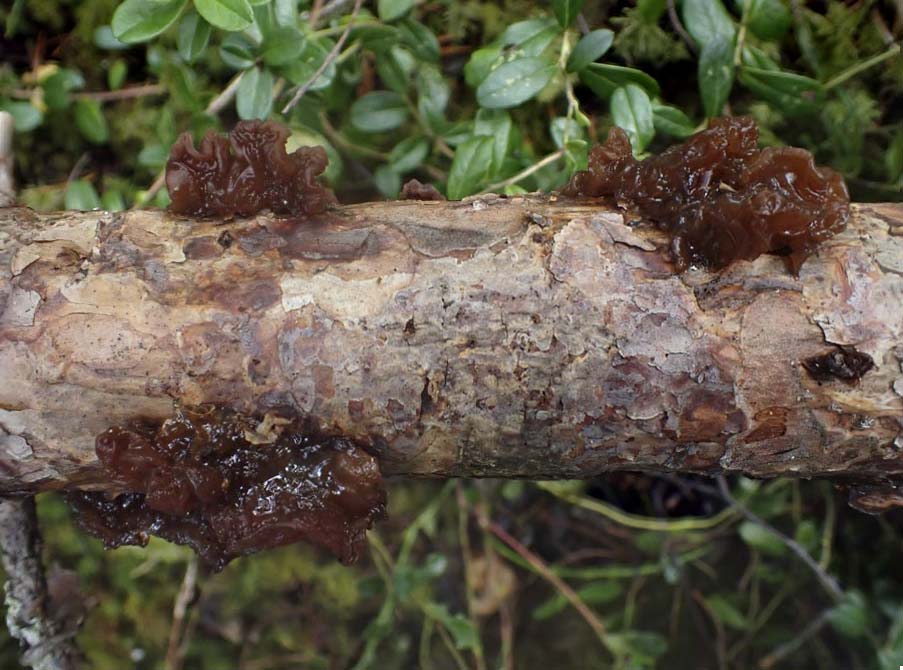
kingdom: Fungi
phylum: Basidiomycota
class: Tremellomycetes
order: Tremellales
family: Tremellaceae
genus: Phaeotremella
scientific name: Phaeotremella foliacea
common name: brun bævresvamp
